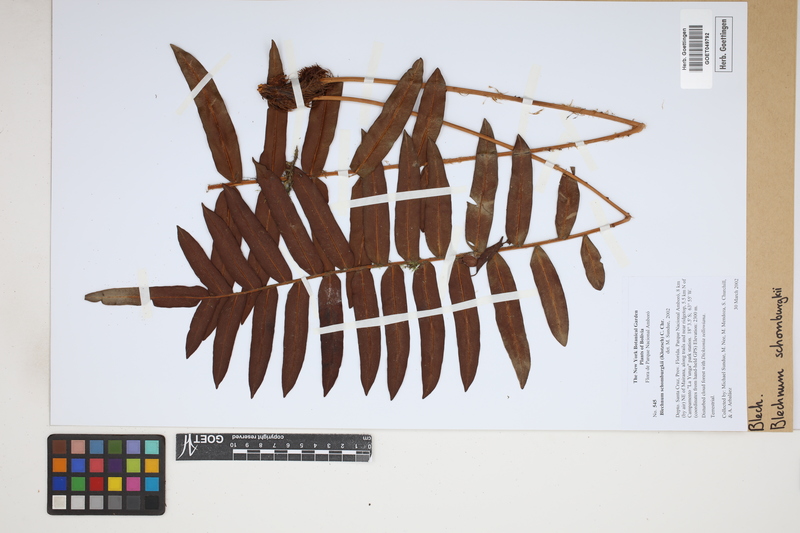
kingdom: Plantae
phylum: Tracheophyta
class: Polypodiopsida
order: Polypodiales
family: Blechnaceae
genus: Lomariocycas
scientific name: Lomariocycas schomburgkii
